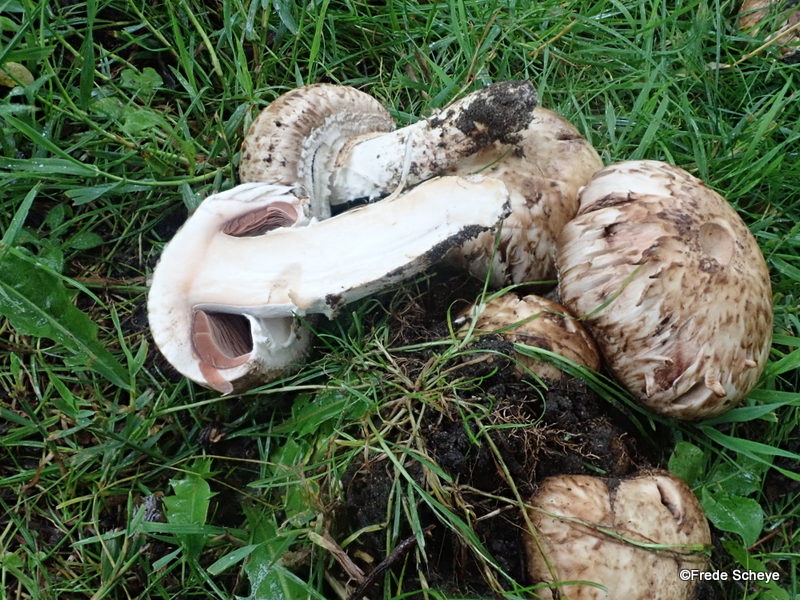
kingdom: Fungi
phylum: Basidiomycota
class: Agaricomycetes
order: Agaricales
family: Agaricaceae
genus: Agaricus
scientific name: Agaricus subperonatus
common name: knippe-champignon
